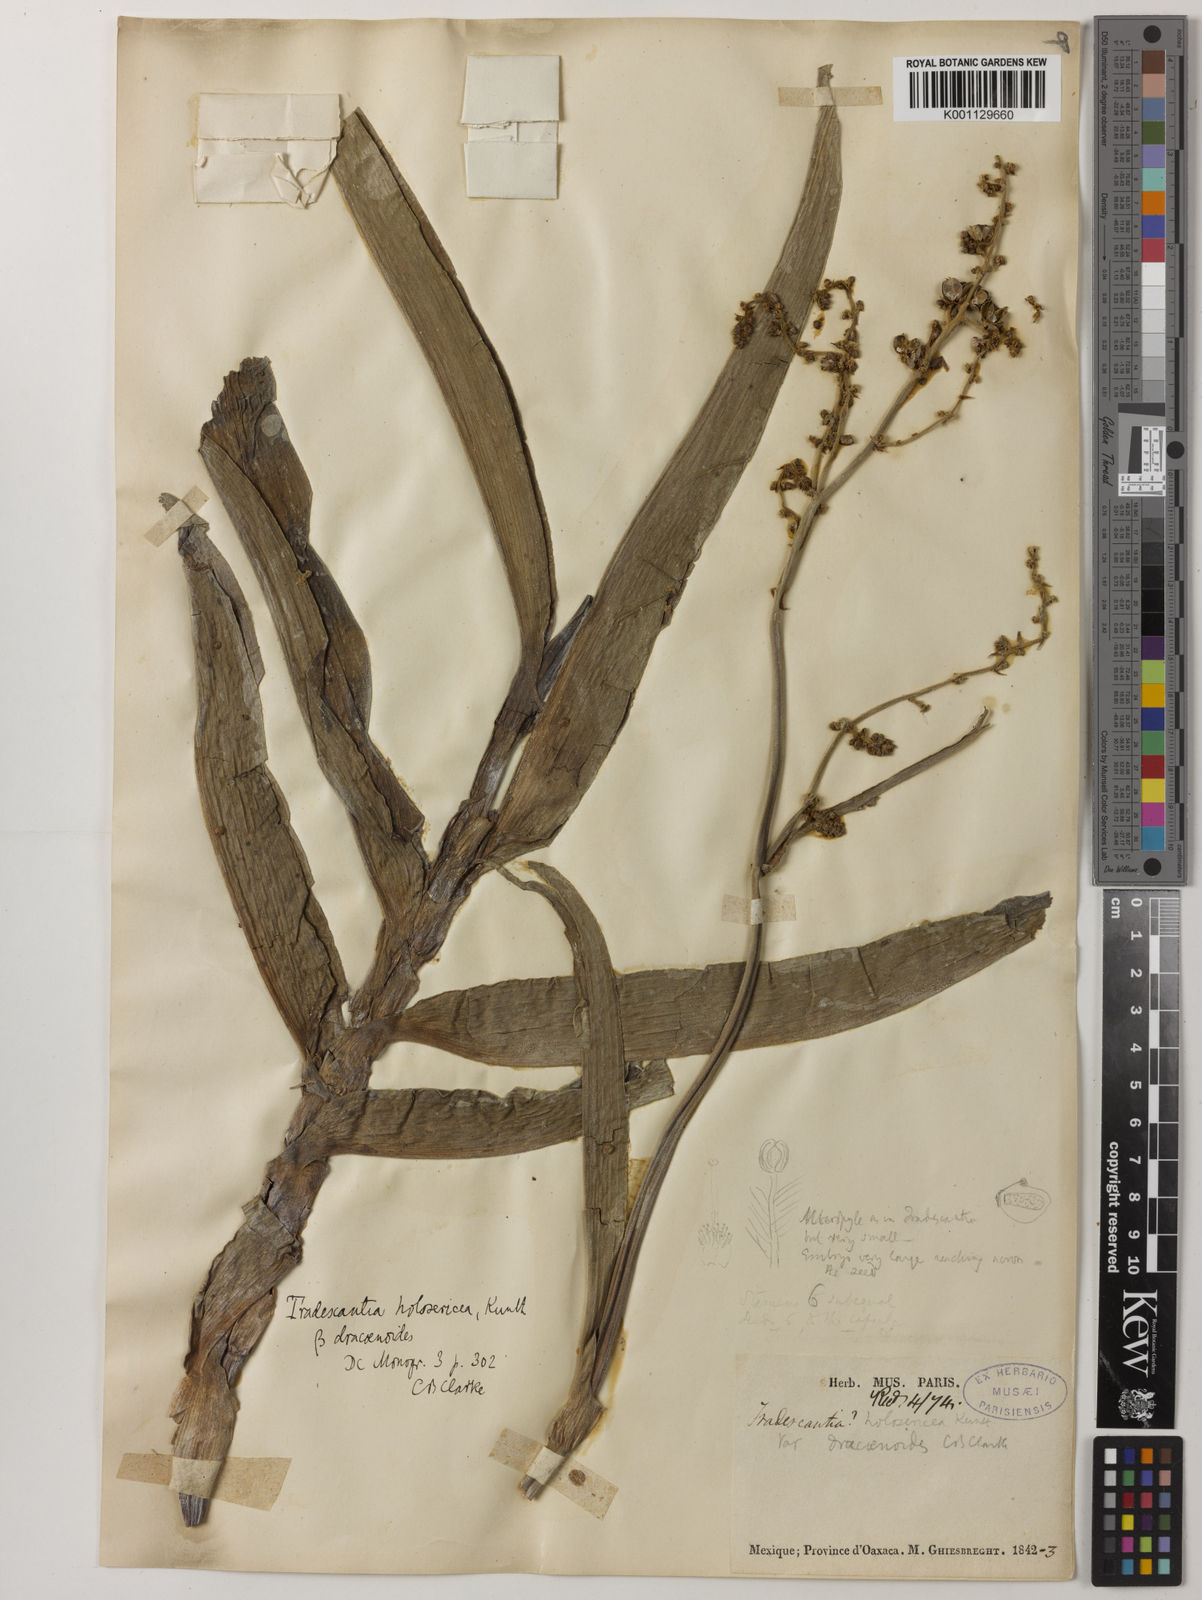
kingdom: Plantae
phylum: Tracheophyta
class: Liliopsida
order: Commelinales
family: Commelinaceae
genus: Thyrsanthemum
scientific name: Thyrsanthemum longifolium
